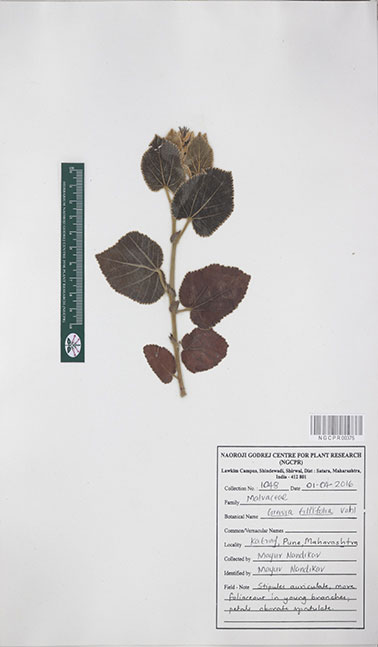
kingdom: Plantae
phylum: Tracheophyta
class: Magnoliopsida
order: Malvales
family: Malvaceae
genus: Grewia
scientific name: Grewia tiliifolia
